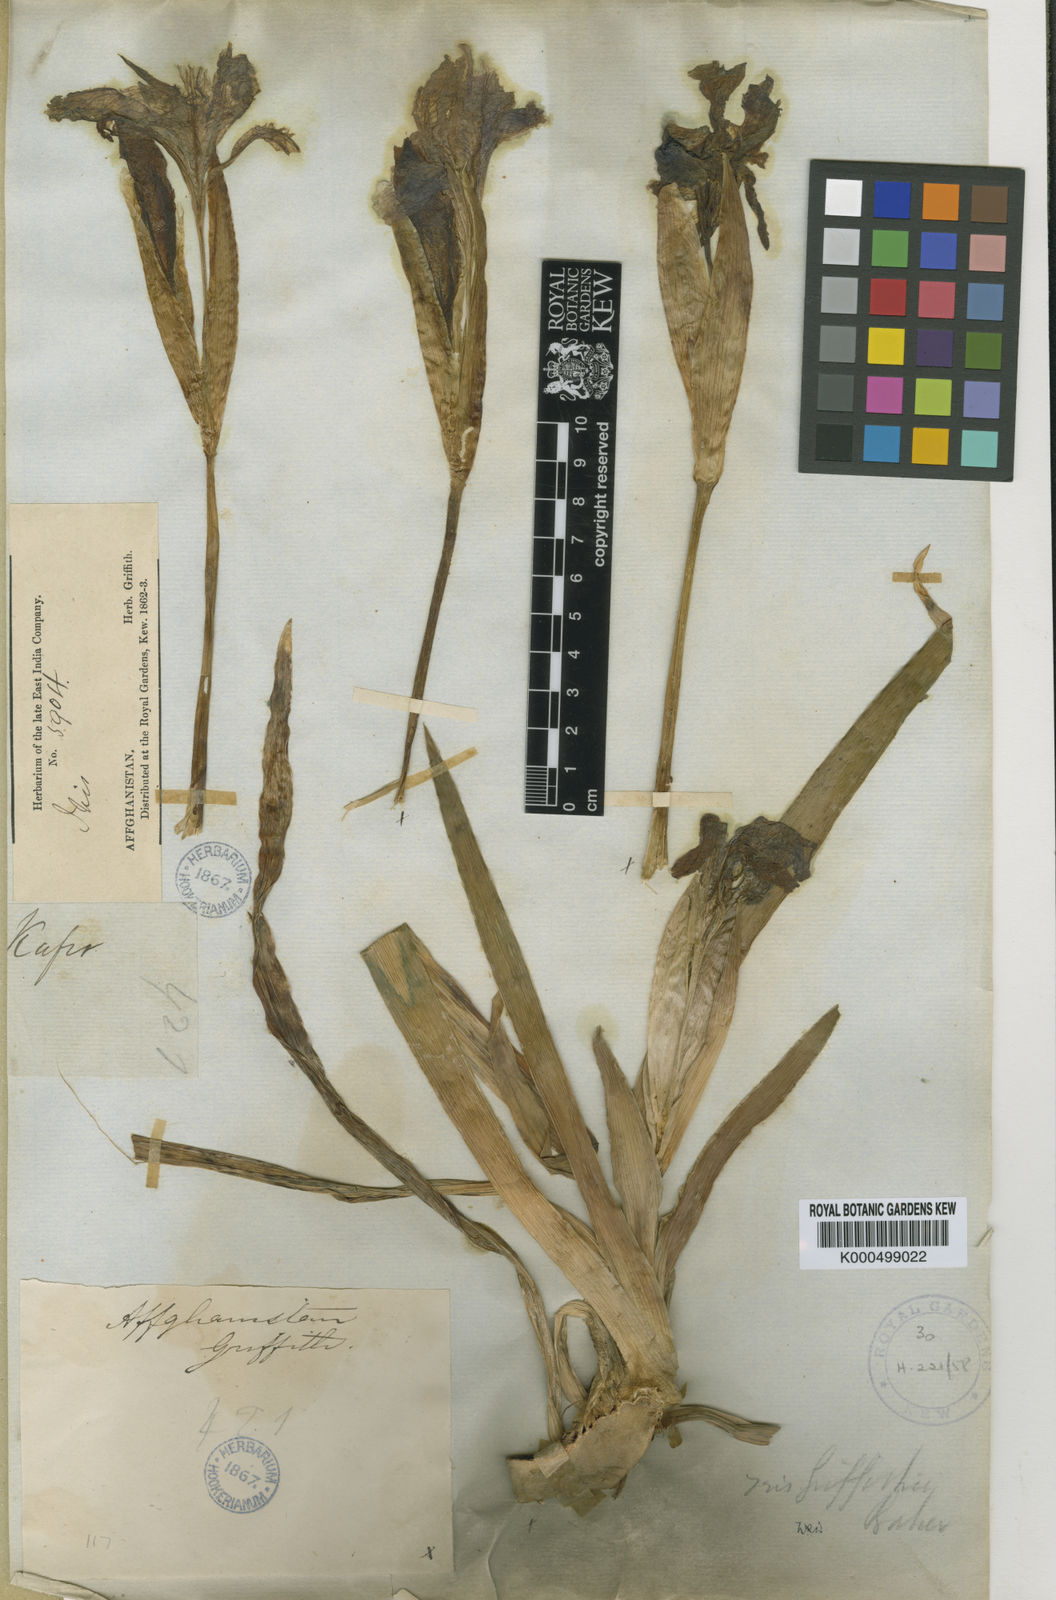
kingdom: Plantae
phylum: Tracheophyta
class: Liliopsida
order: Asparagales
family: Iridaceae
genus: Iris
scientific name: Iris griffithii
